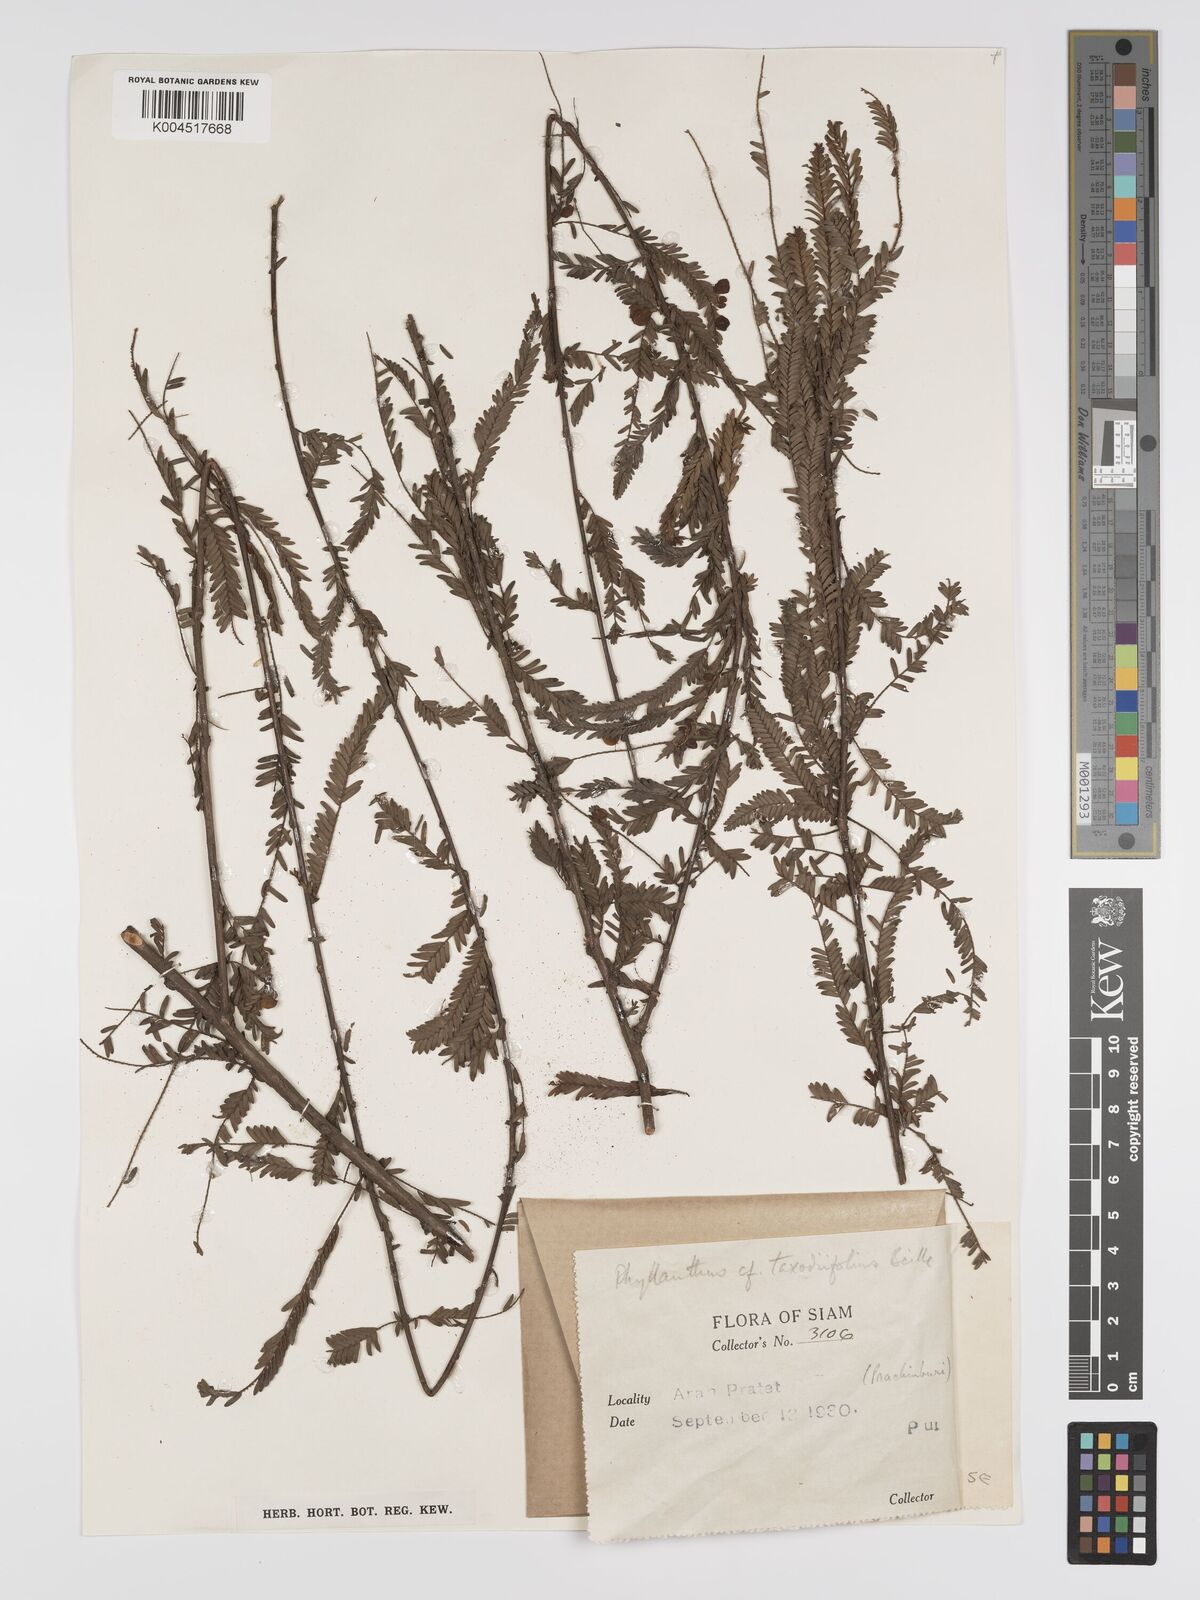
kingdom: Plantae
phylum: Tracheophyta
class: Magnoliopsida
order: Malpighiales
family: Phyllanthaceae
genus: Phyllanthus
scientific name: Phyllanthus taxodiifolius
